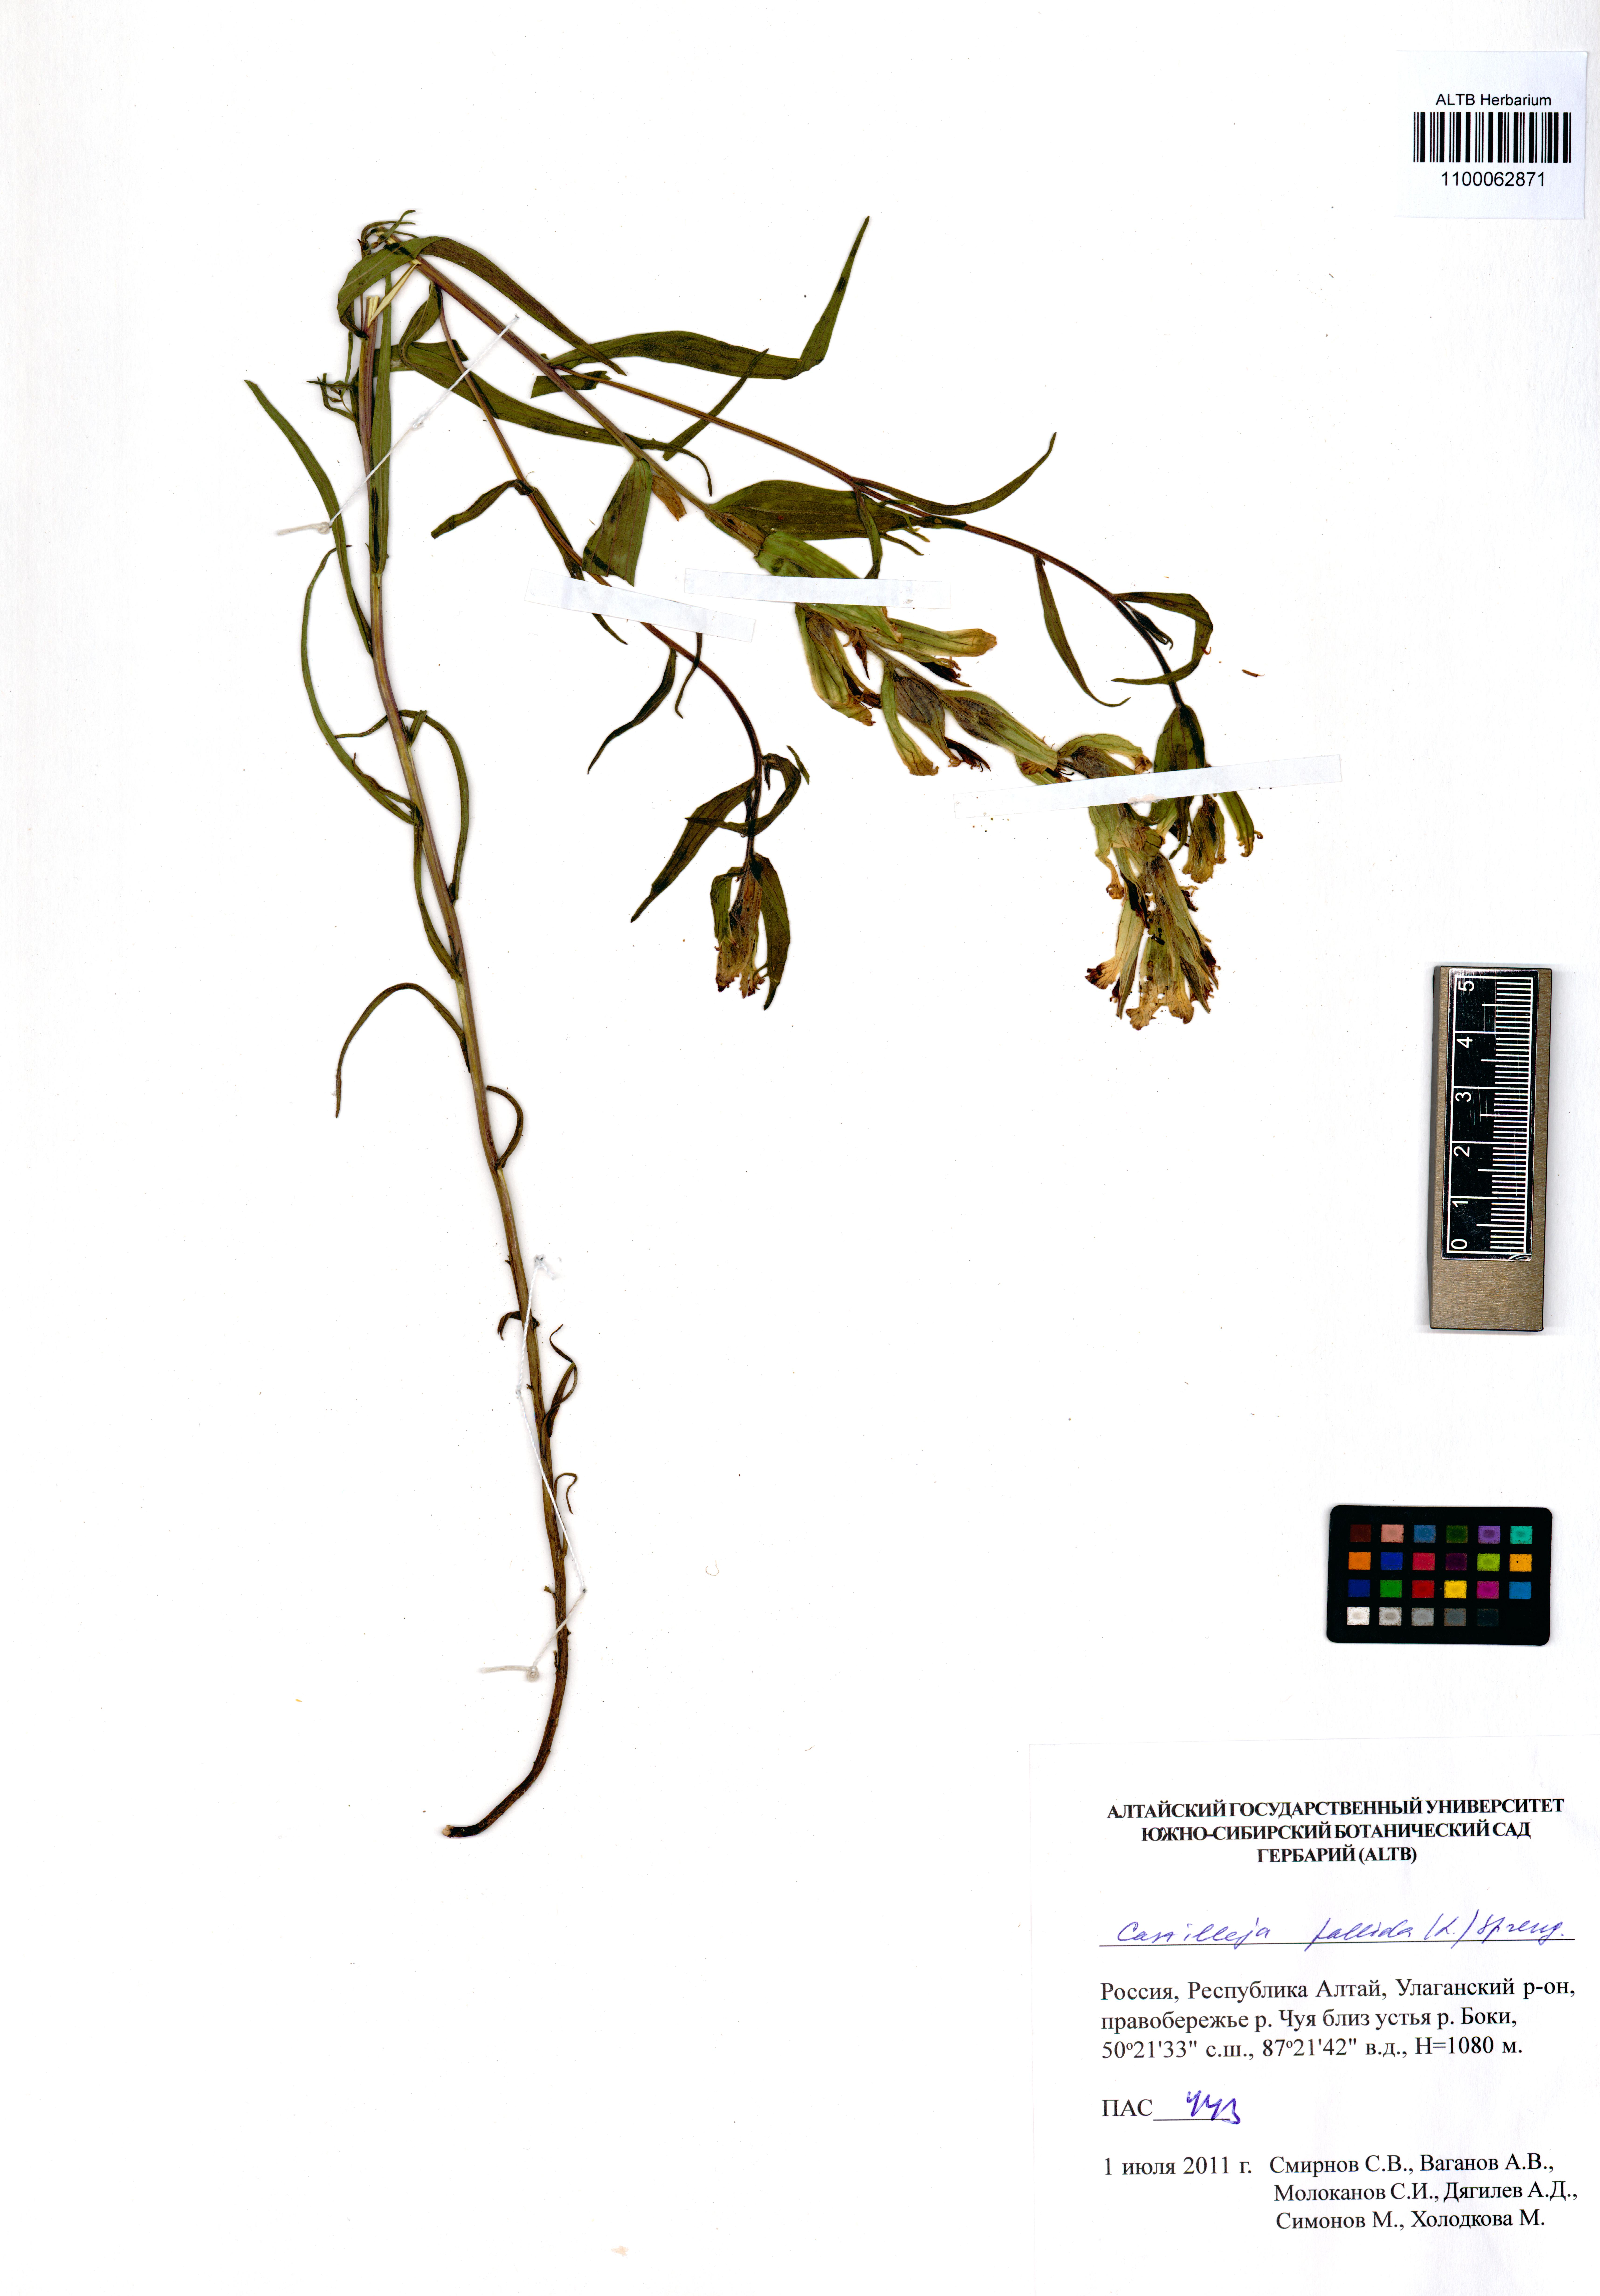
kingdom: Plantae
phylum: Tracheophyta
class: Magnoliopsida
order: Lamiales
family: Orobanchaceae
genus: Castilleja
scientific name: Castilleja pallida
